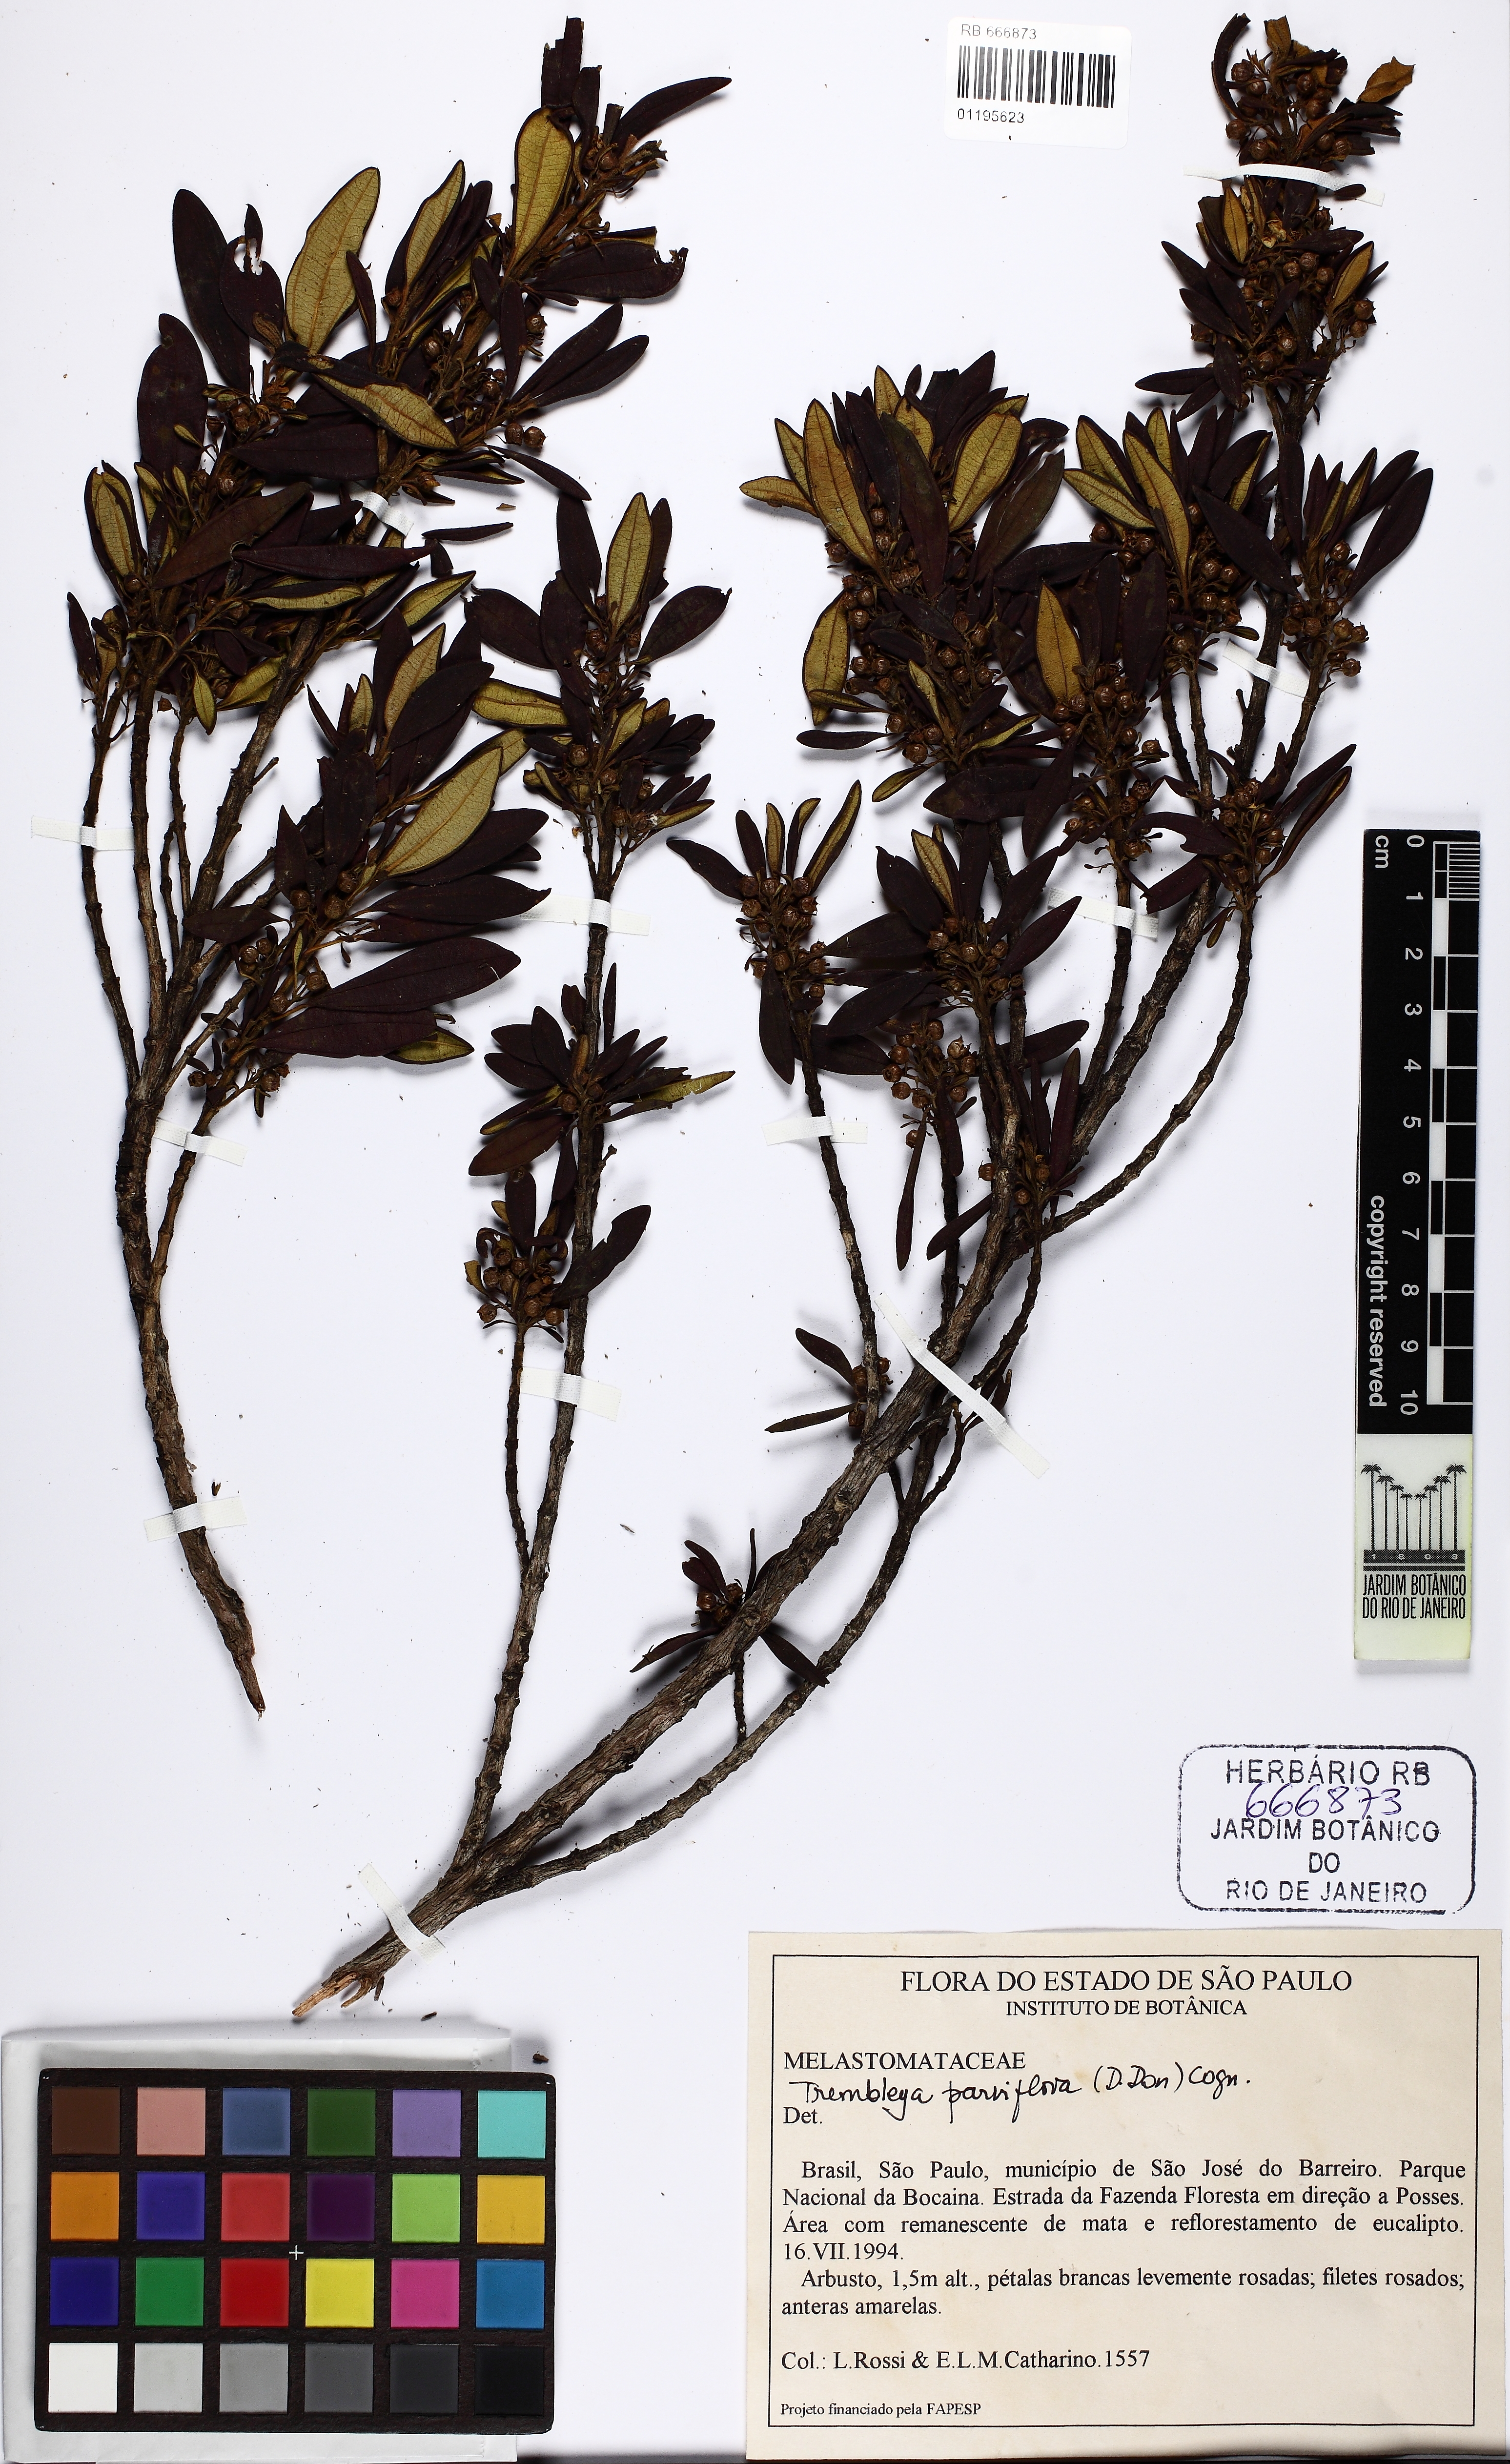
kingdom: Plantae
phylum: Tracheophyta
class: Magnoliopsida
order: Myrtales
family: Melastomataceae
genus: Microlicia
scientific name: Microlicia parviflora
